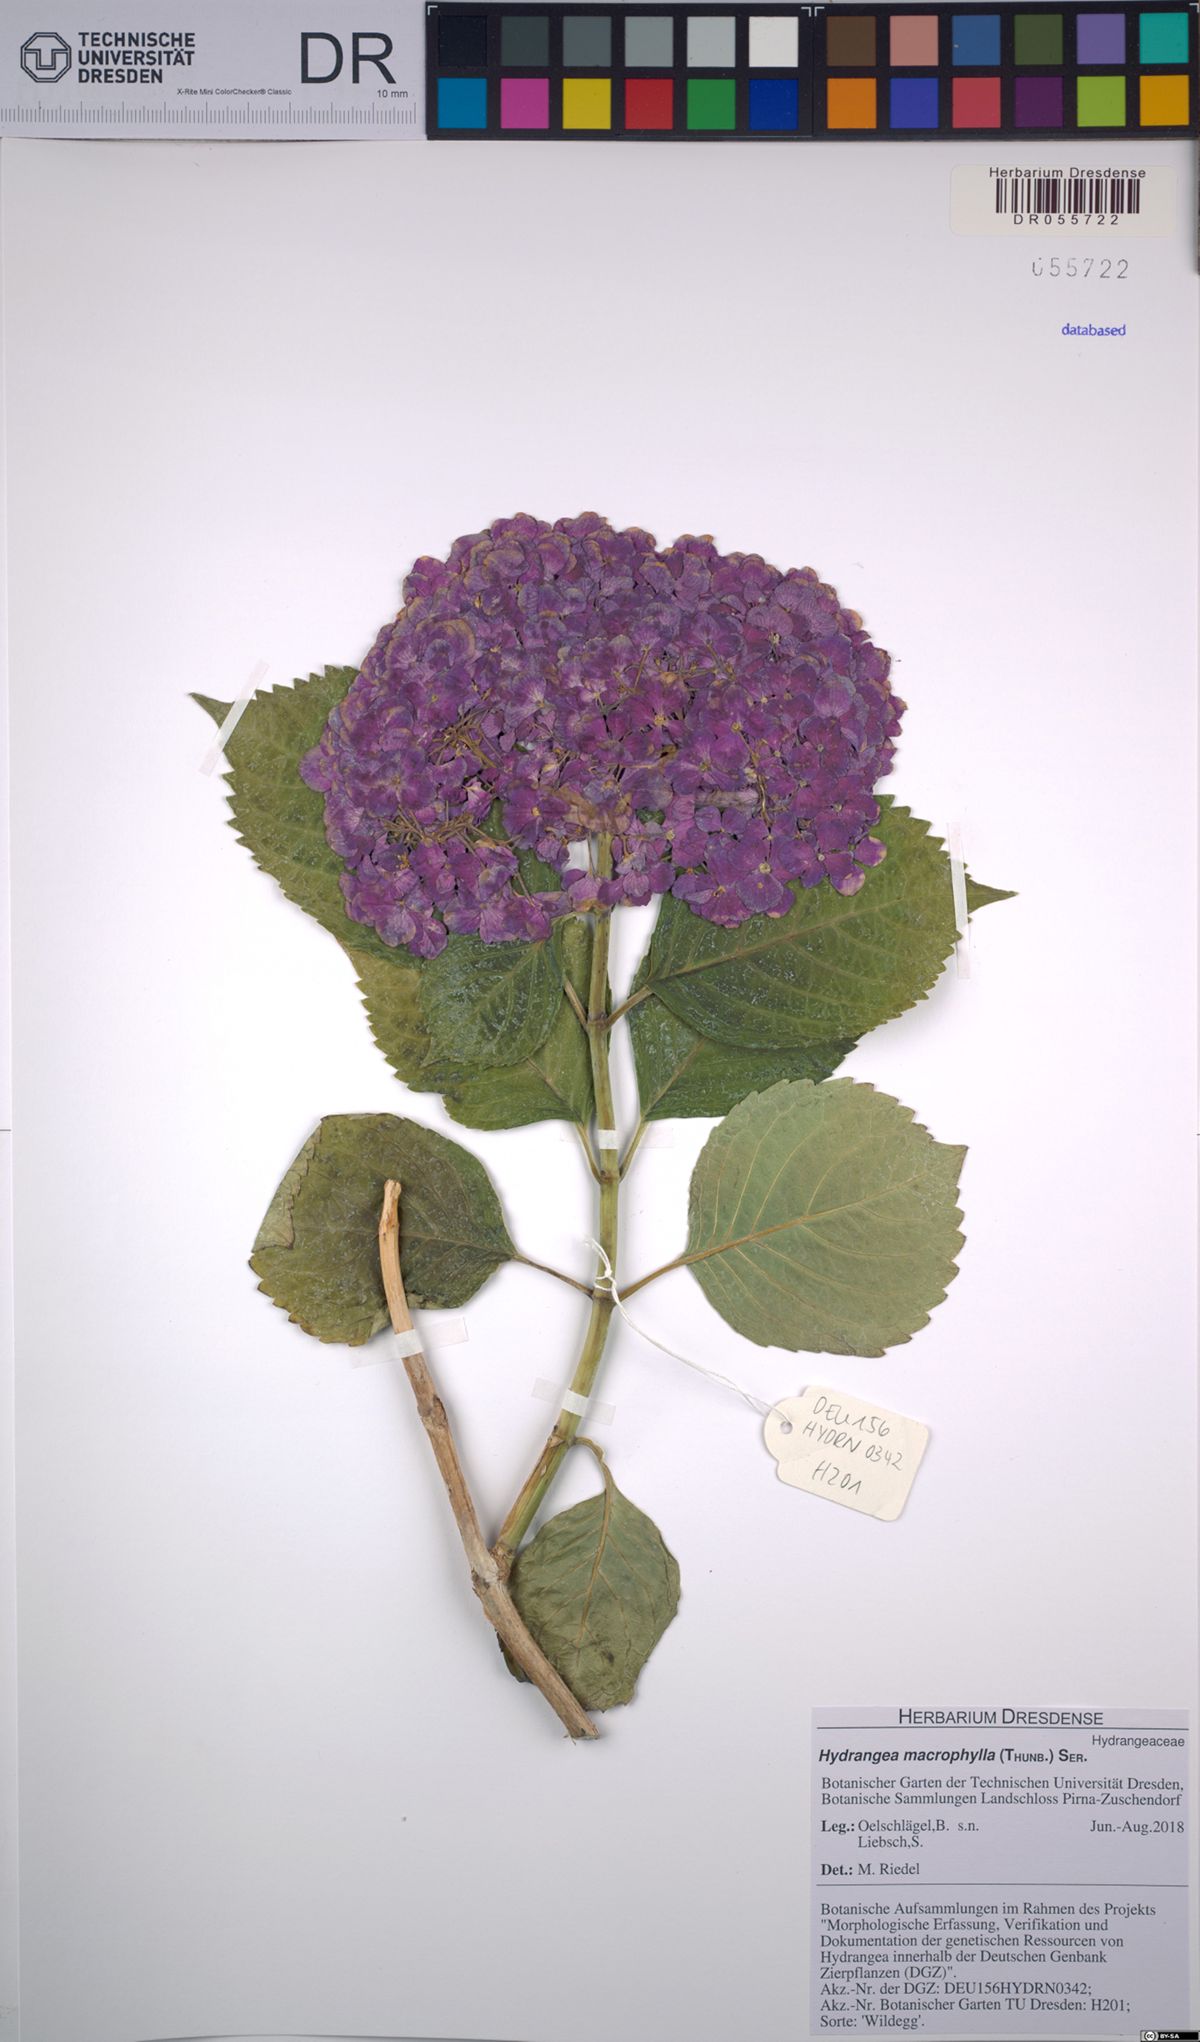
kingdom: Plantae
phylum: Tracheophyta
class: Magnoliopsida
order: Cornales
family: Hydrangeaceae
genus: Hydrangea
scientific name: Hydrangea macrophylla
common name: Hydrangea
